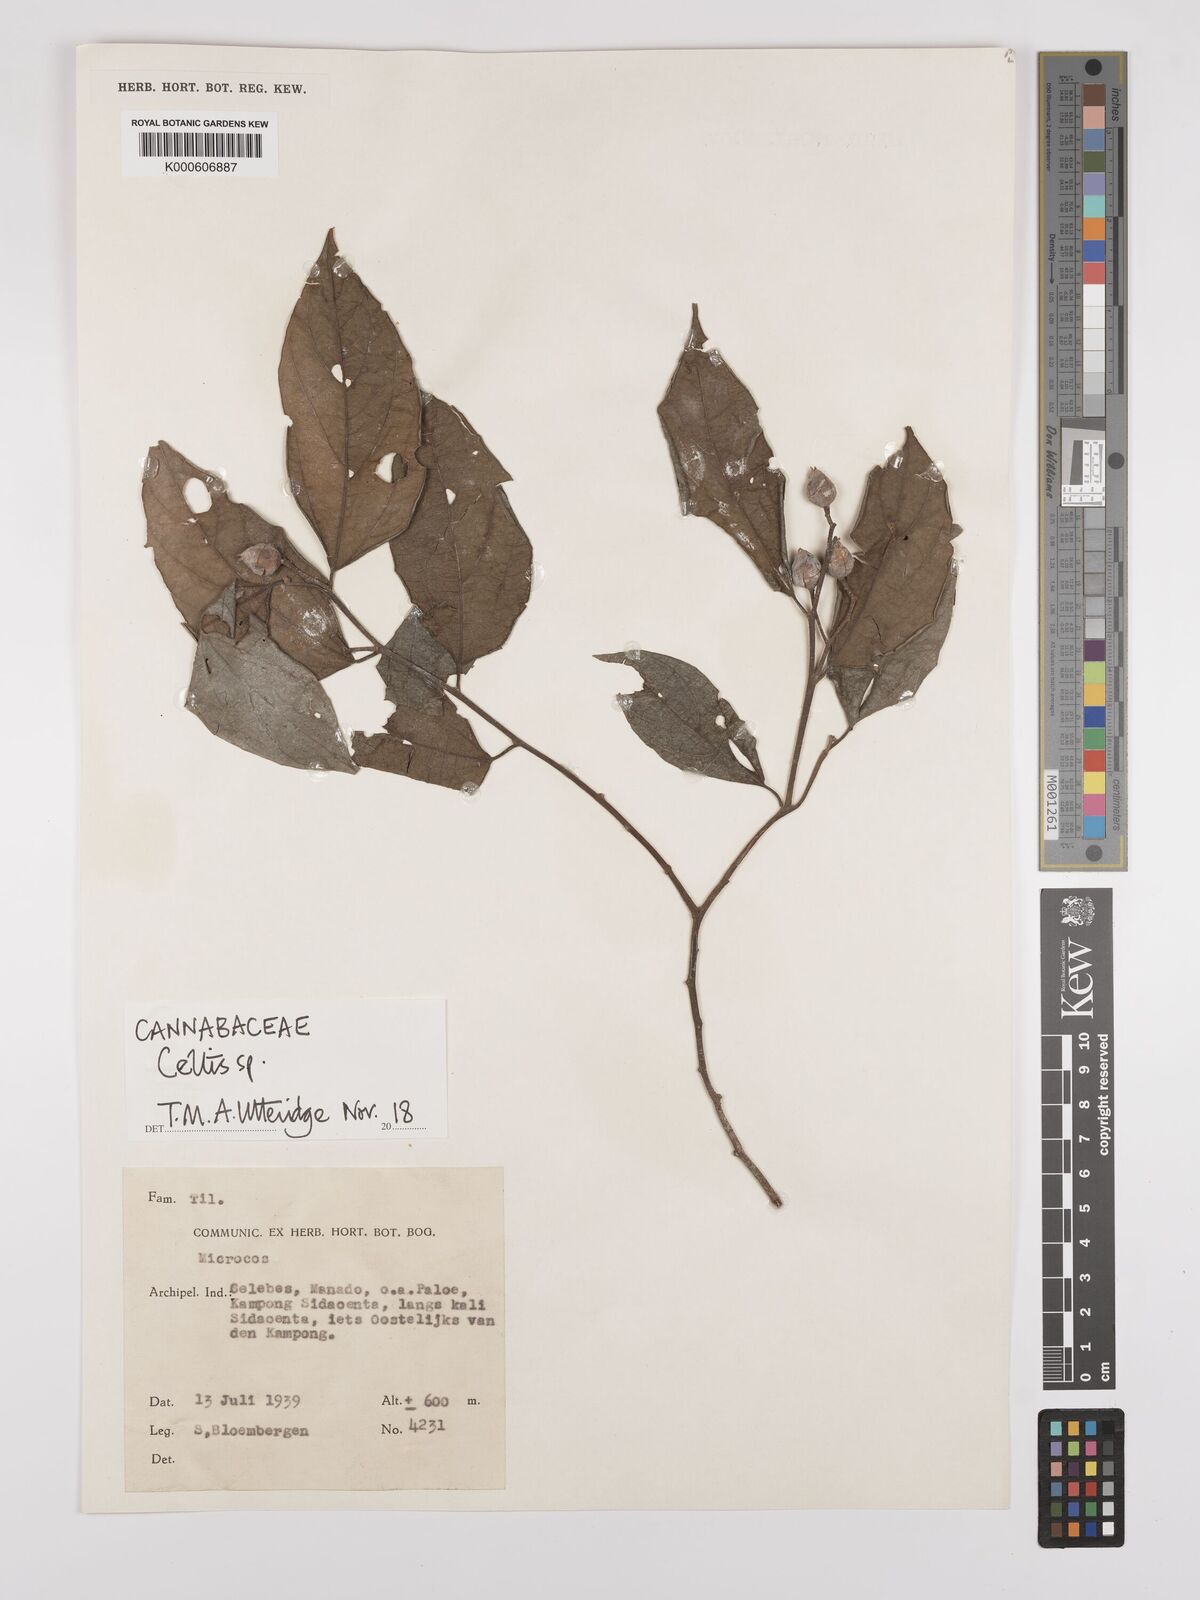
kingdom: Plantae
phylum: Tracheophyta
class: Magnoliopsida
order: Rosales
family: Cannabaceae
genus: Celtis
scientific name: Celtis
